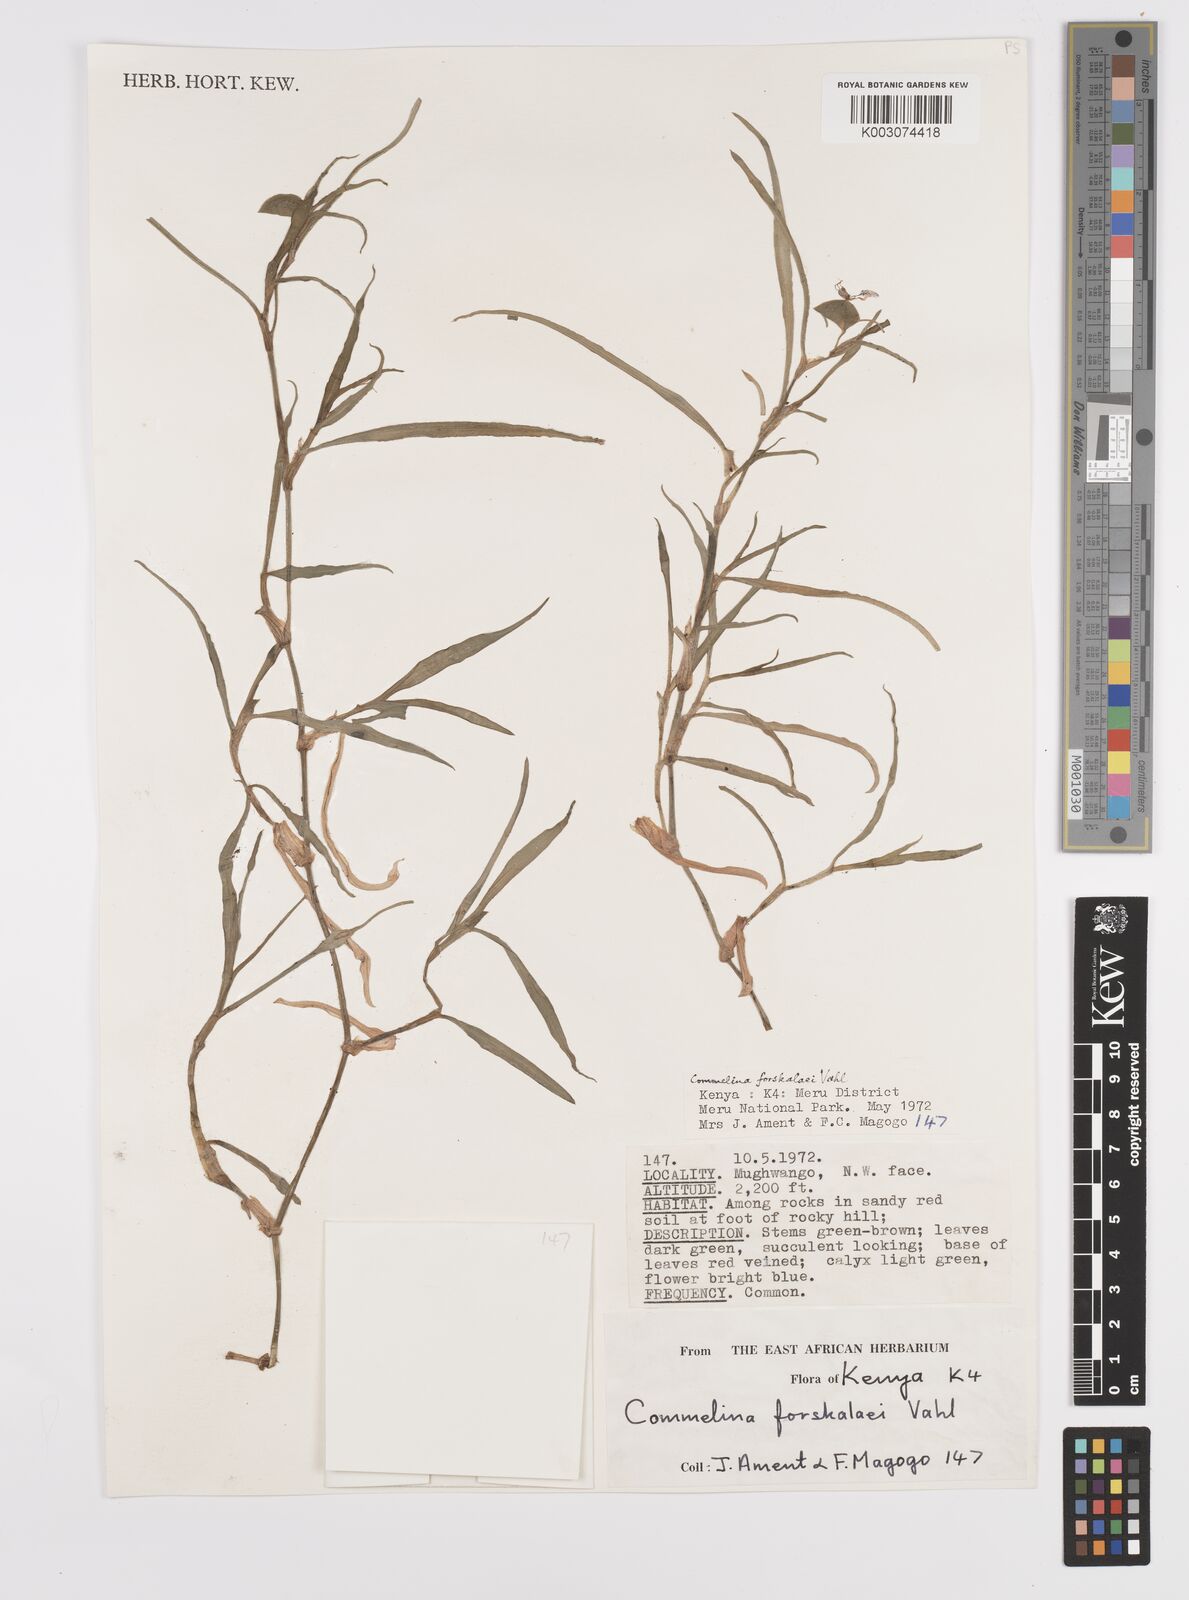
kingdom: Plantae
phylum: Tracheophyta
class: Liliopsida
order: Commelinales
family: Commelinaceae
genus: Commelina
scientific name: Commelina forskaolii
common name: Rat's ear
